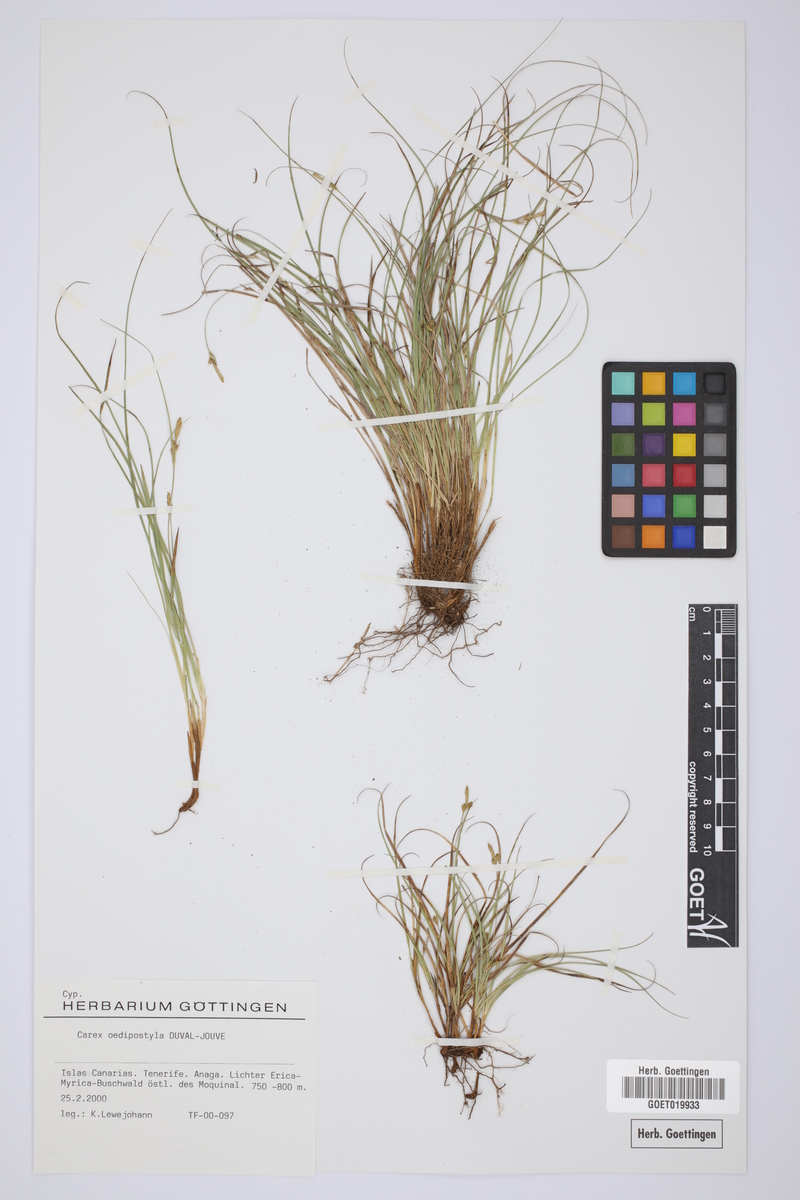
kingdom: Plantae
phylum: Tracheophyta
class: Liliopsida
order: Poales
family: Cyperaceae
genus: Carex
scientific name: Carex oedipostyla
